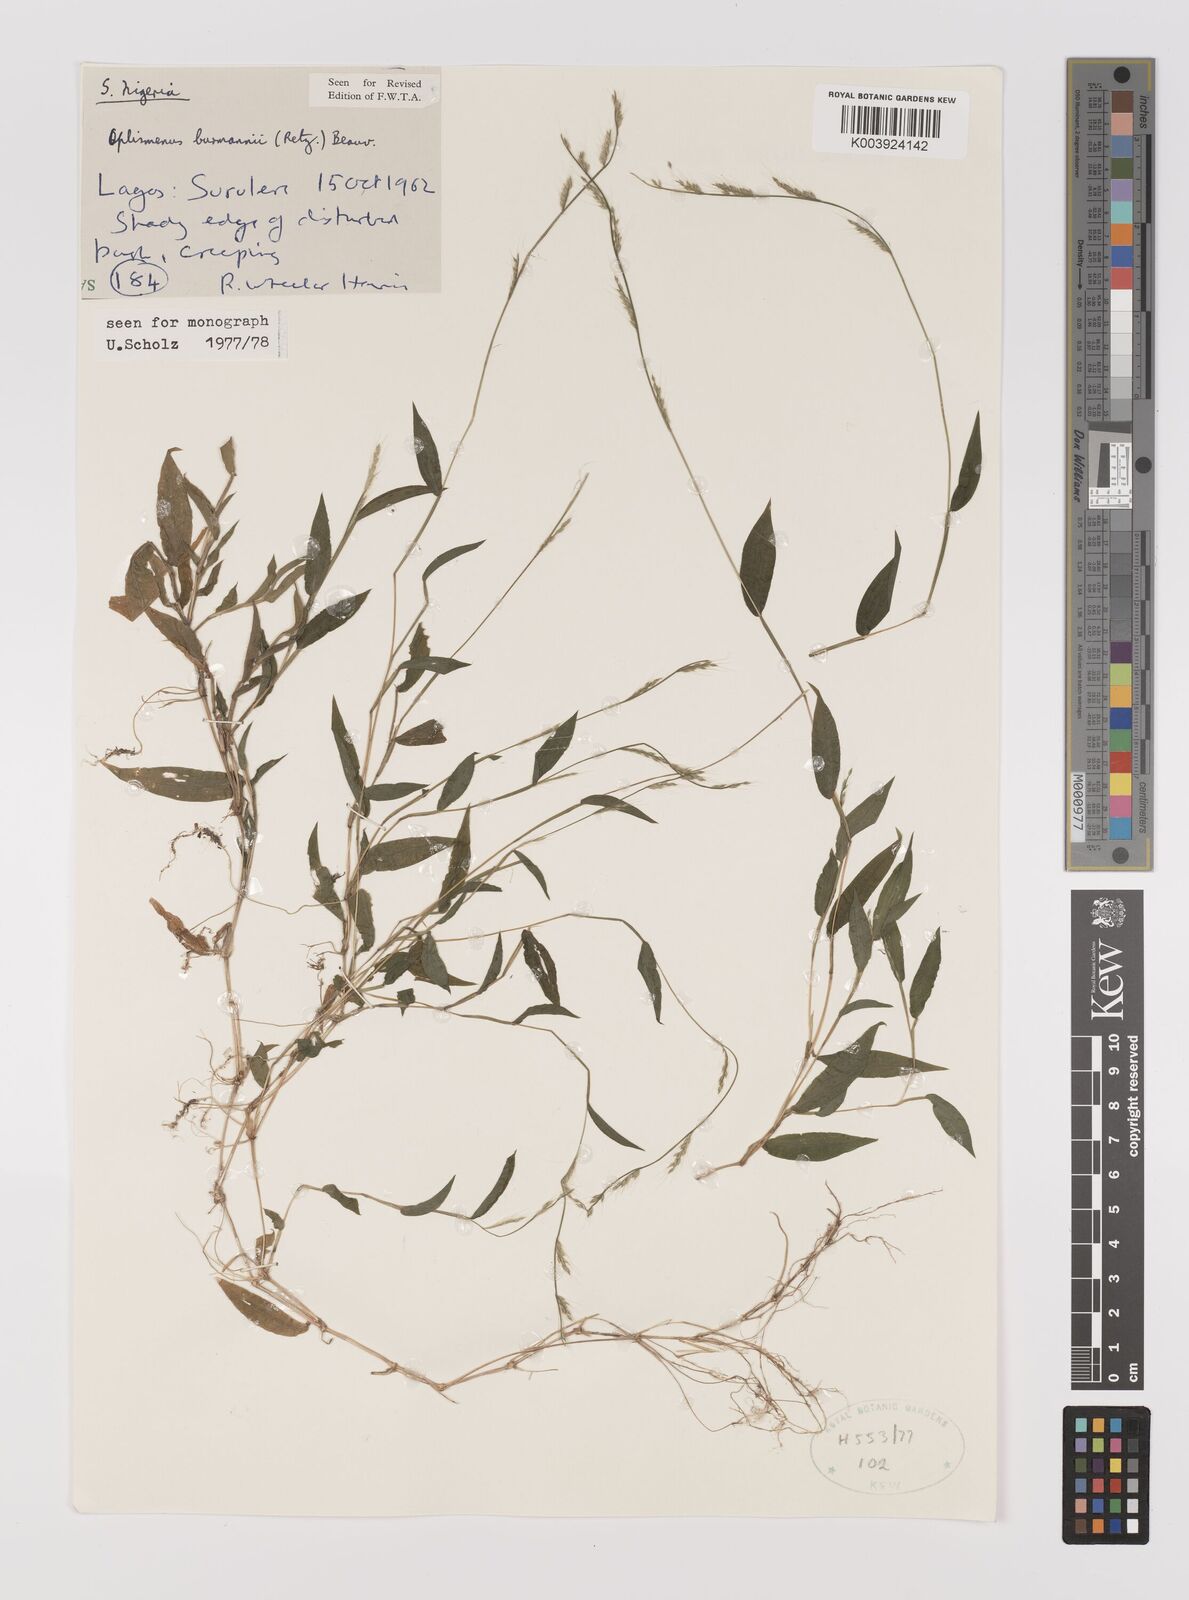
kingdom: Plantae
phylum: Tracheophyta
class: Liliopsida
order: Poales
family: Poaceae
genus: Oplismenus
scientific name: Oplismenus burmanni
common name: Burmann's basketgrass
